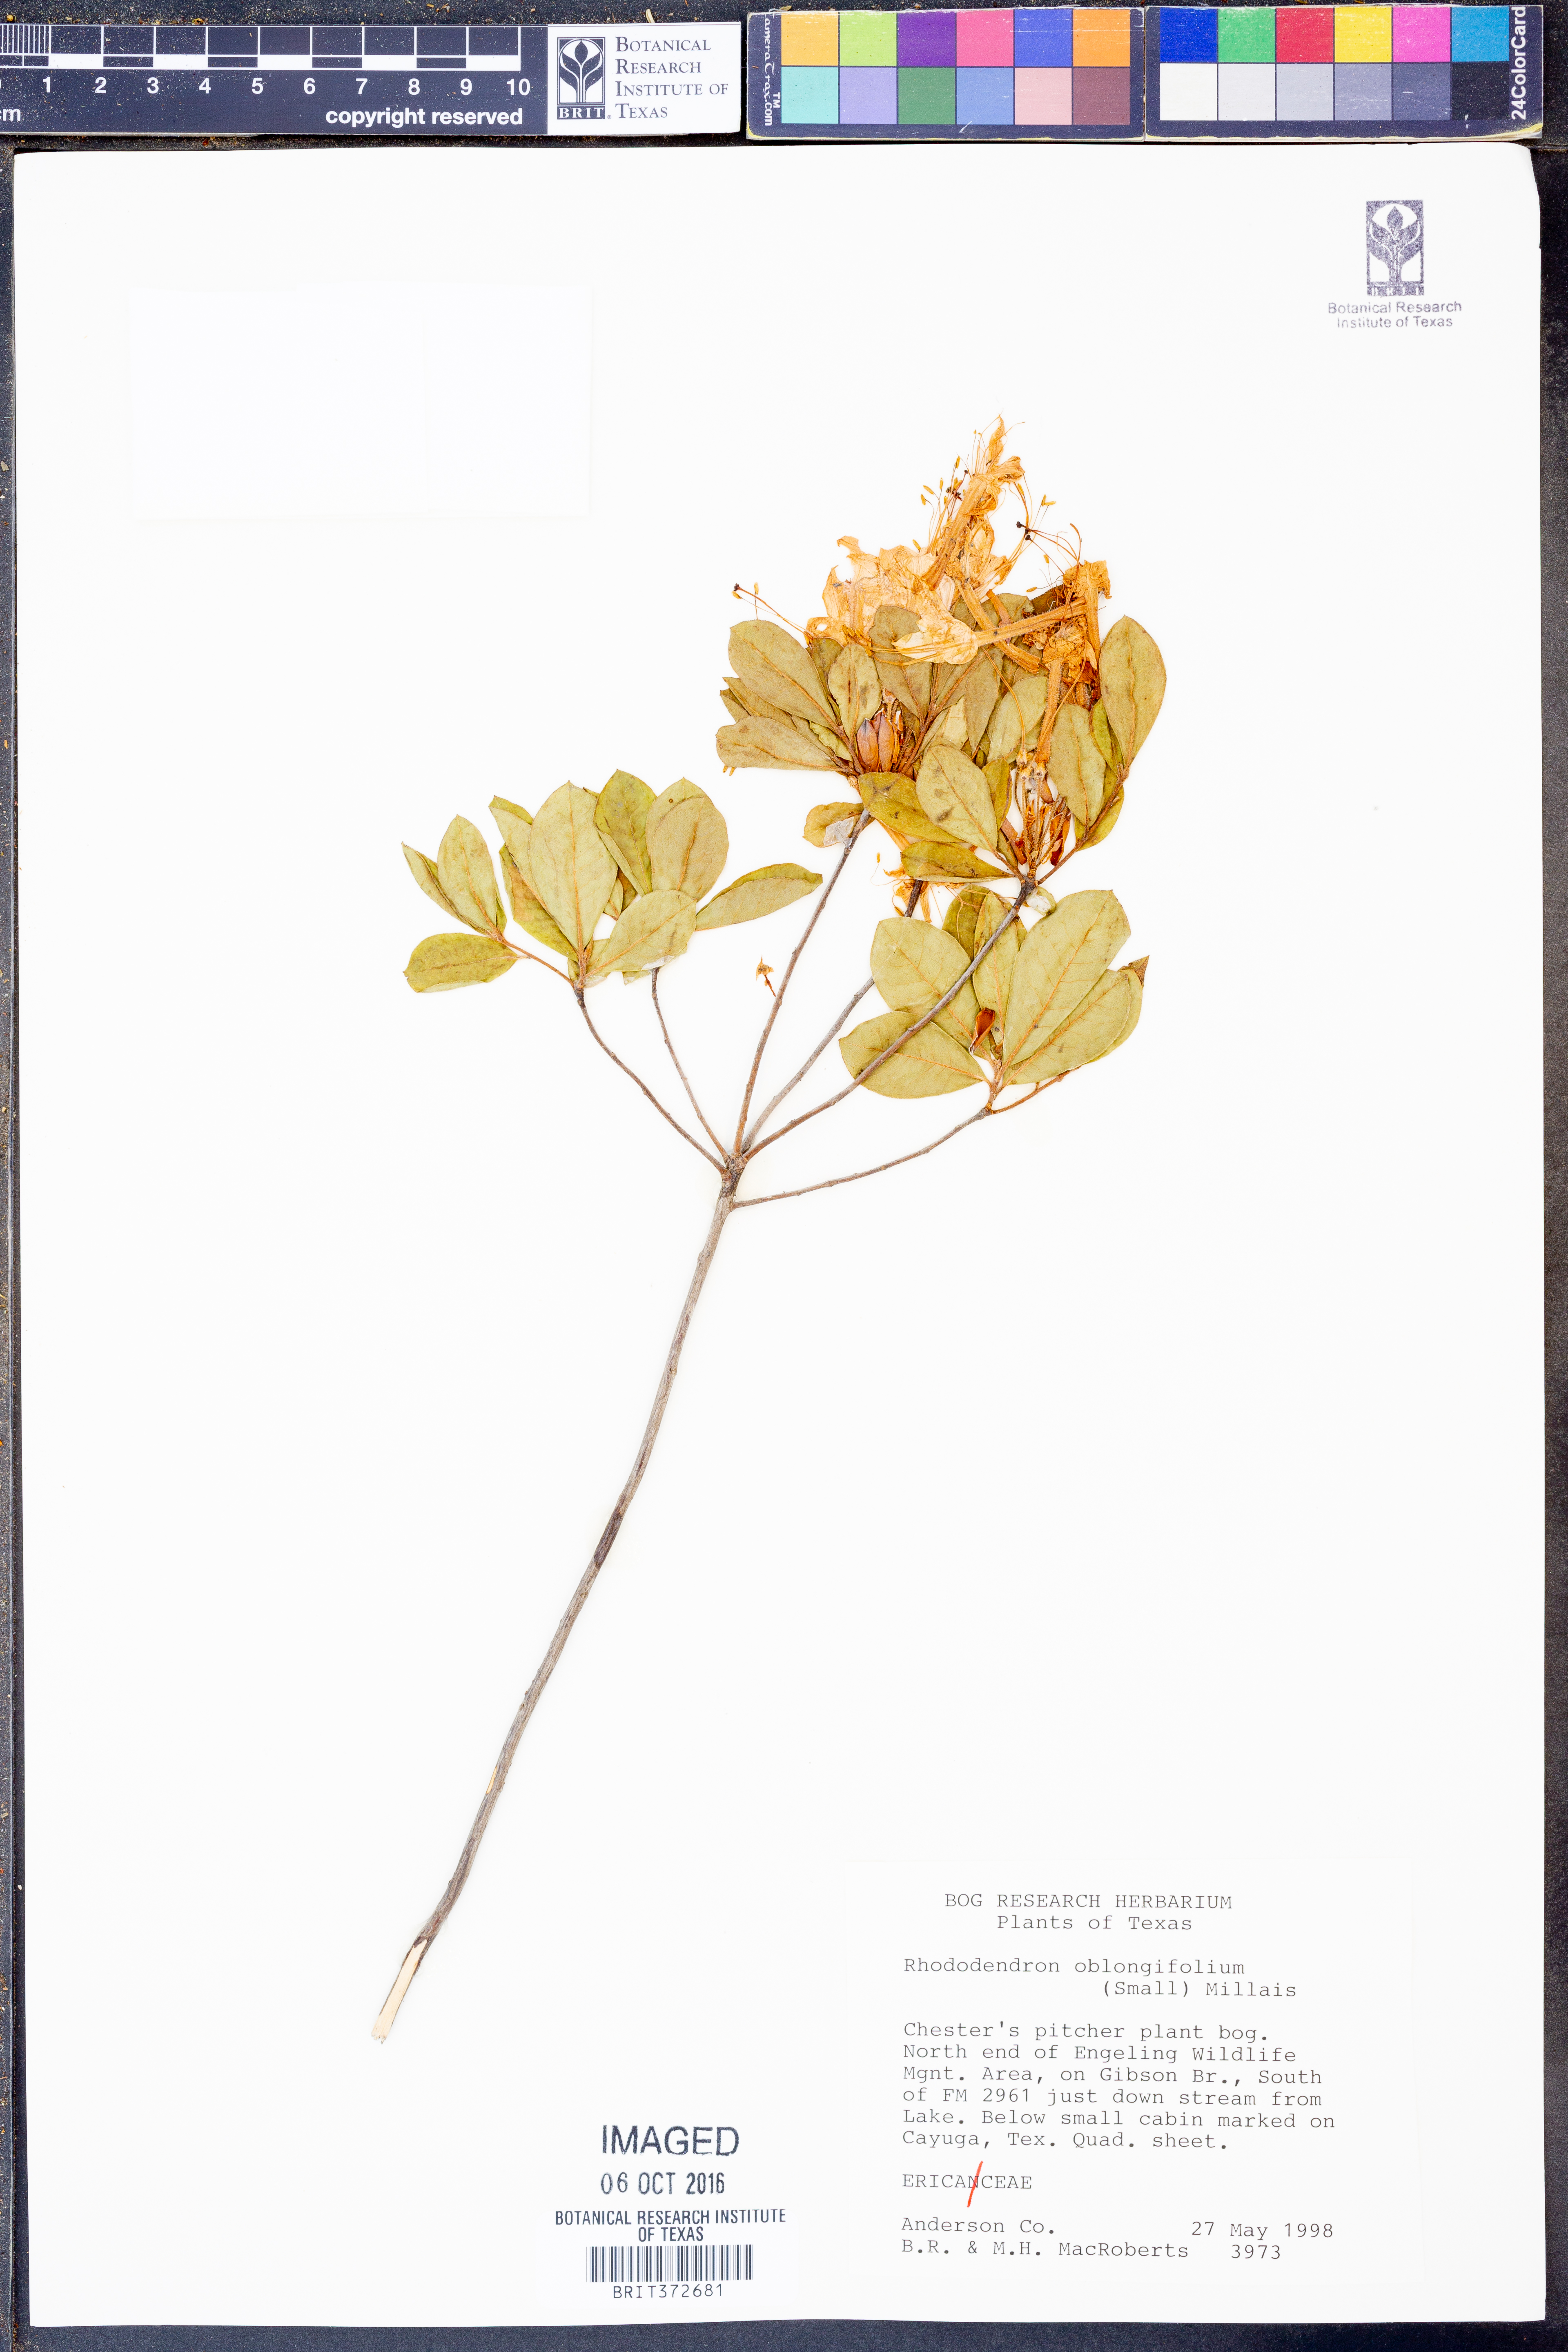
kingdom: Plantae
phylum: Tracheophyta
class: Magnoliopsida
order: Ericales
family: Ericaceae
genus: Rhododendron
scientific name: Rhododendron viscosum
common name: Clammy azalea
